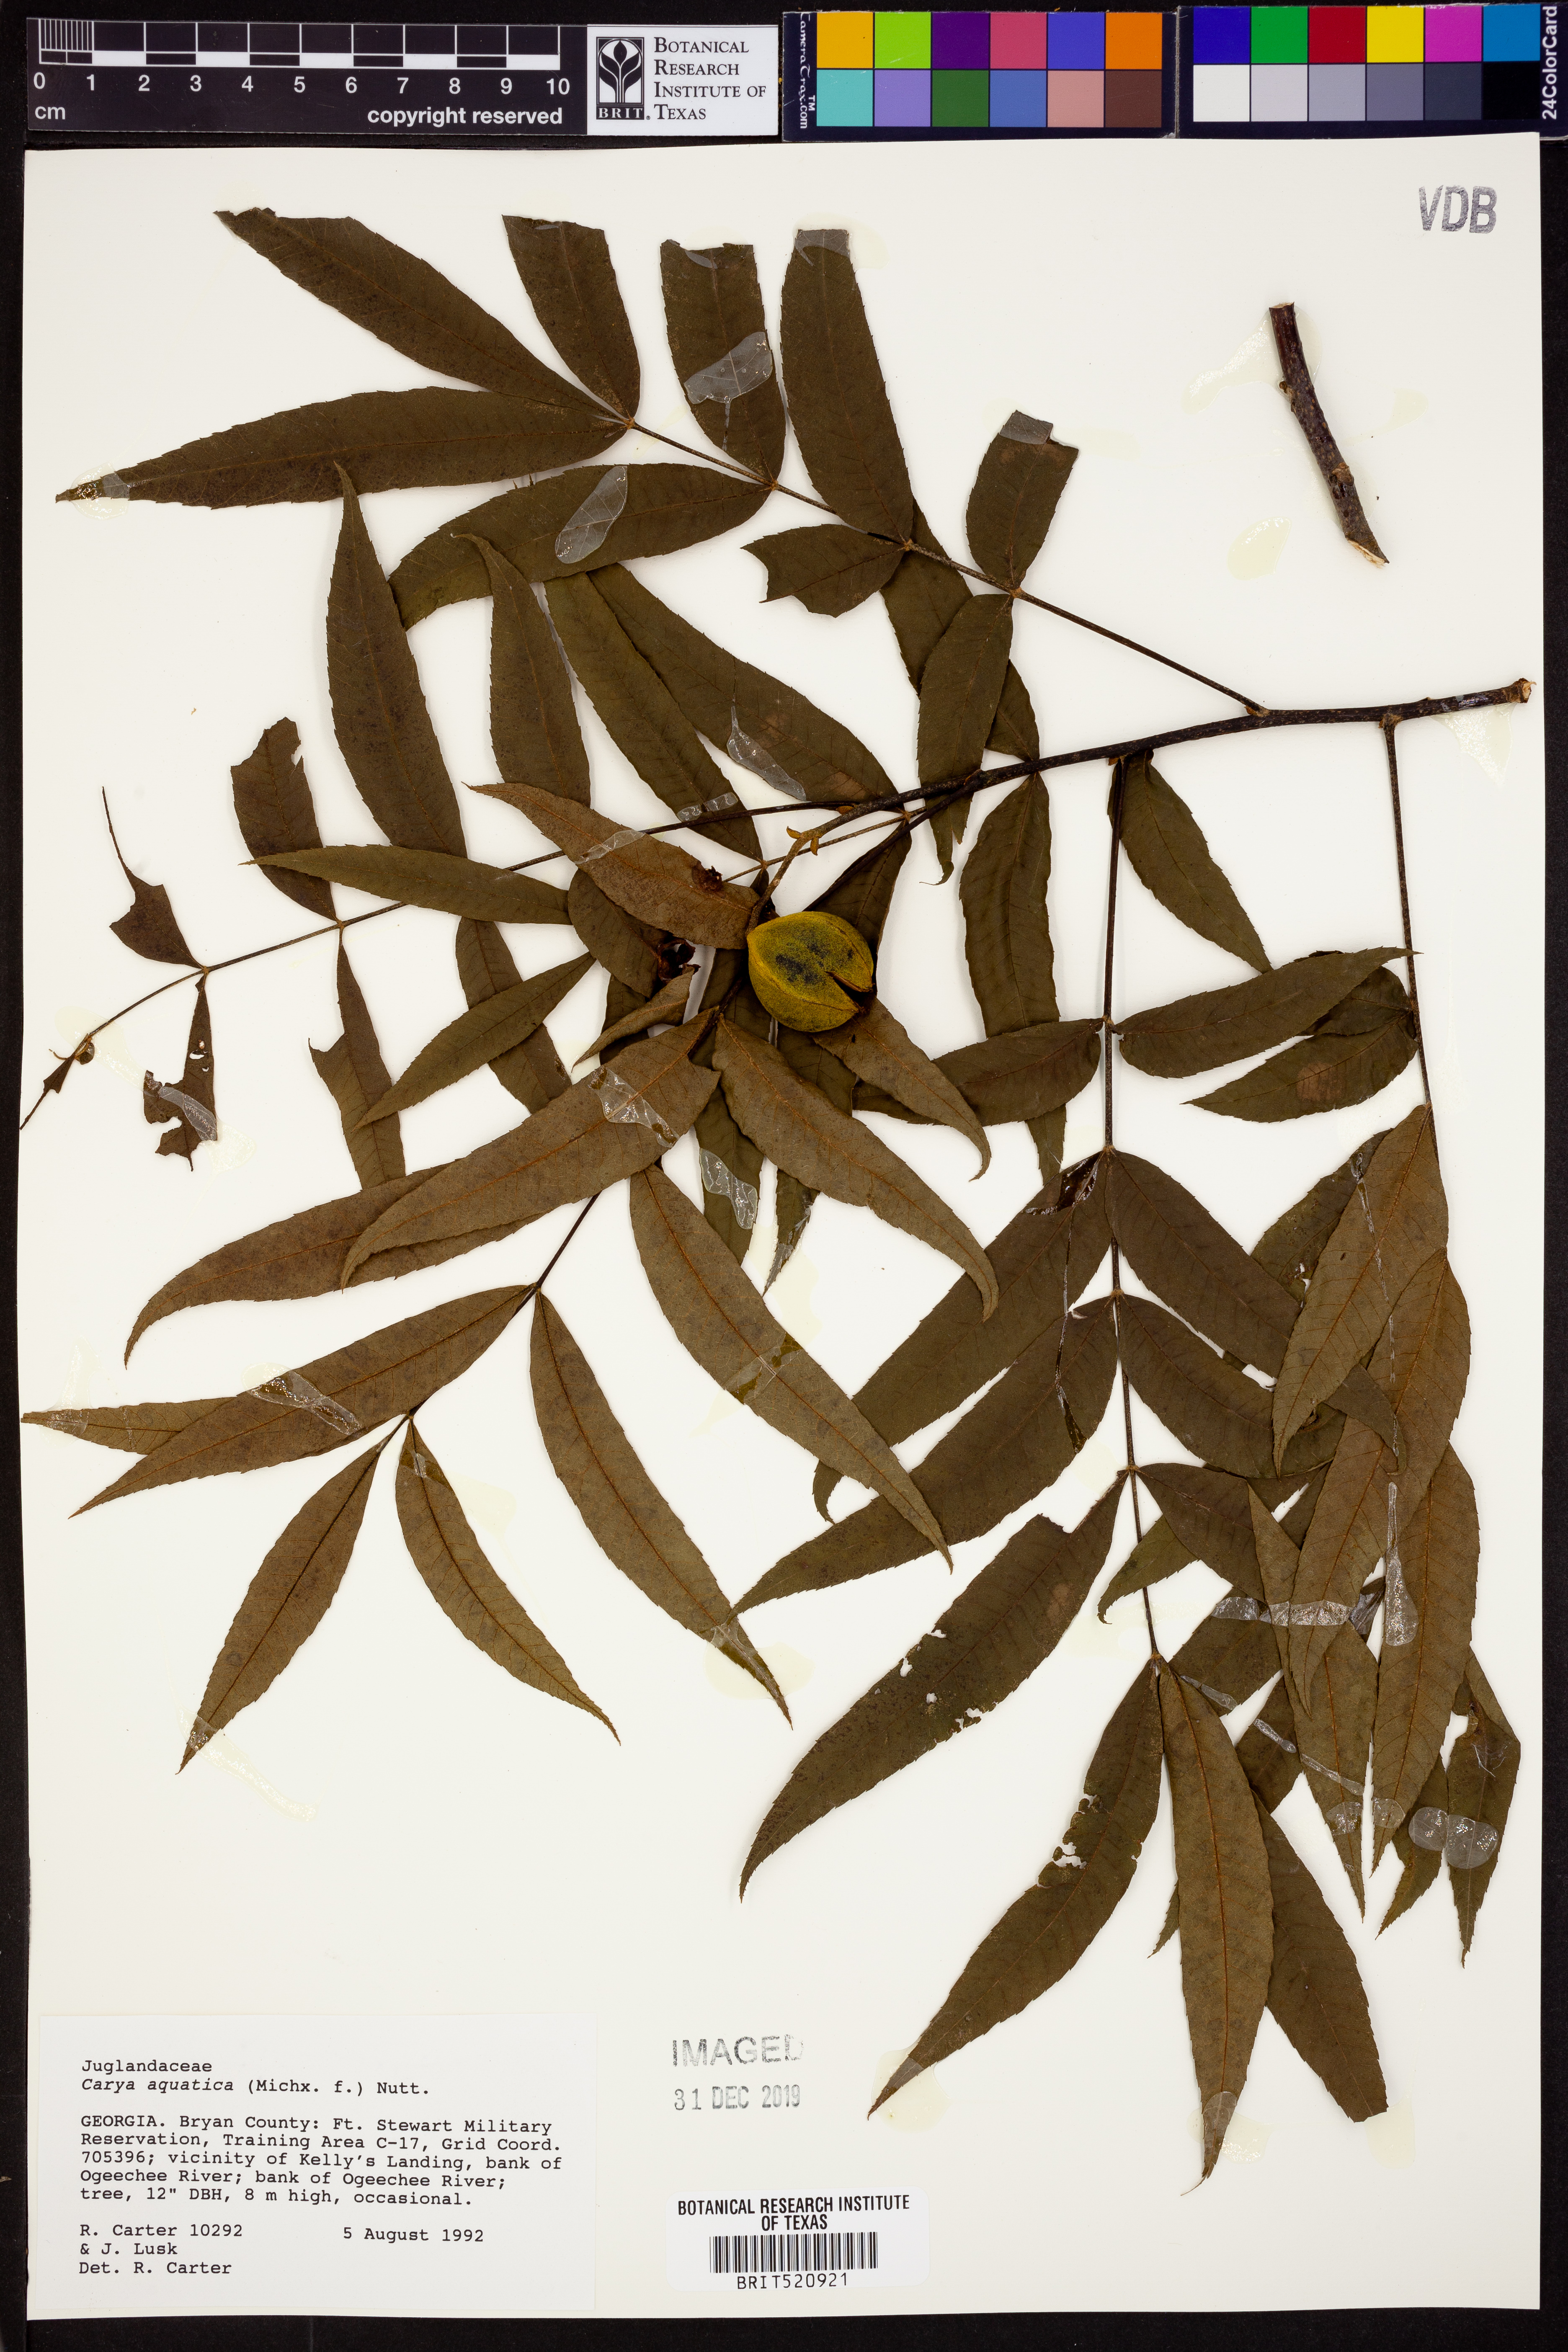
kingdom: Plantae
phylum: Tracheophyta
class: Magnoliopsida
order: Fagales
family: Juglandaceae
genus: Carya
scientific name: Carya aquatica
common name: Water hickory
